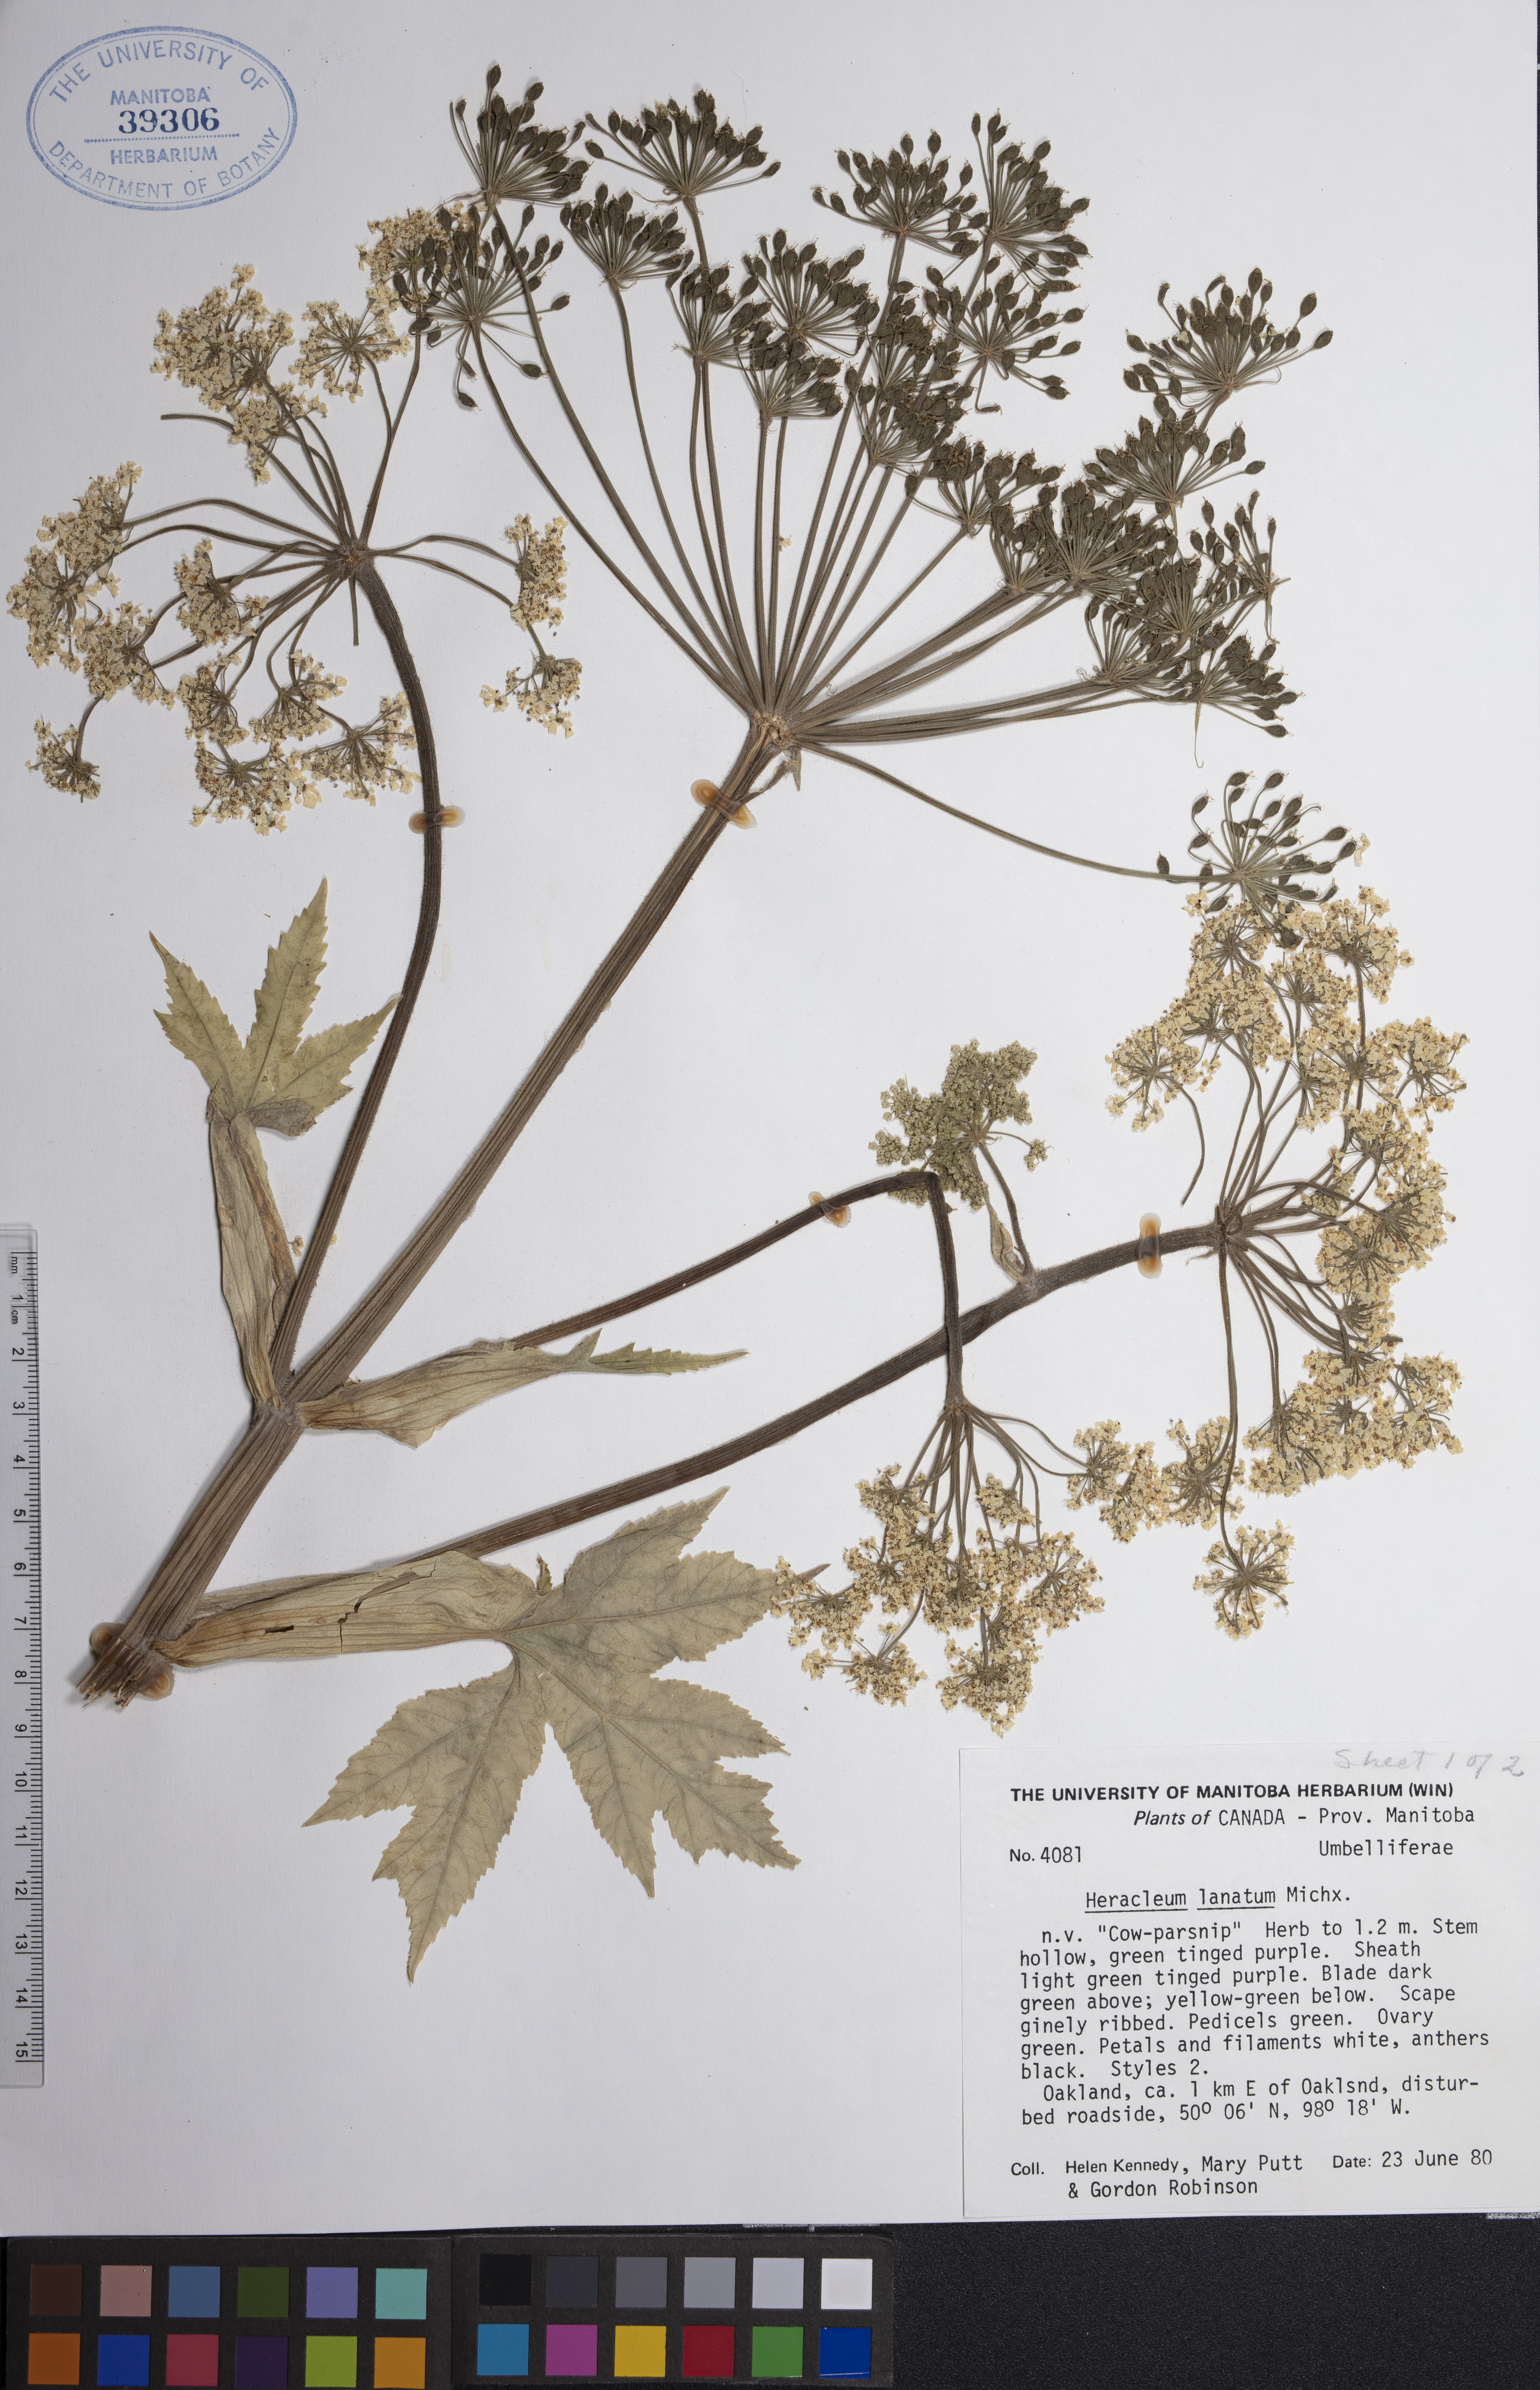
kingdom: Plantae
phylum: Tracheophyta
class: Magnoliopsida
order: Apiales
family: Apiaceae
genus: Heracleum
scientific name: Heracleum maximum
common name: American cow parsnip
